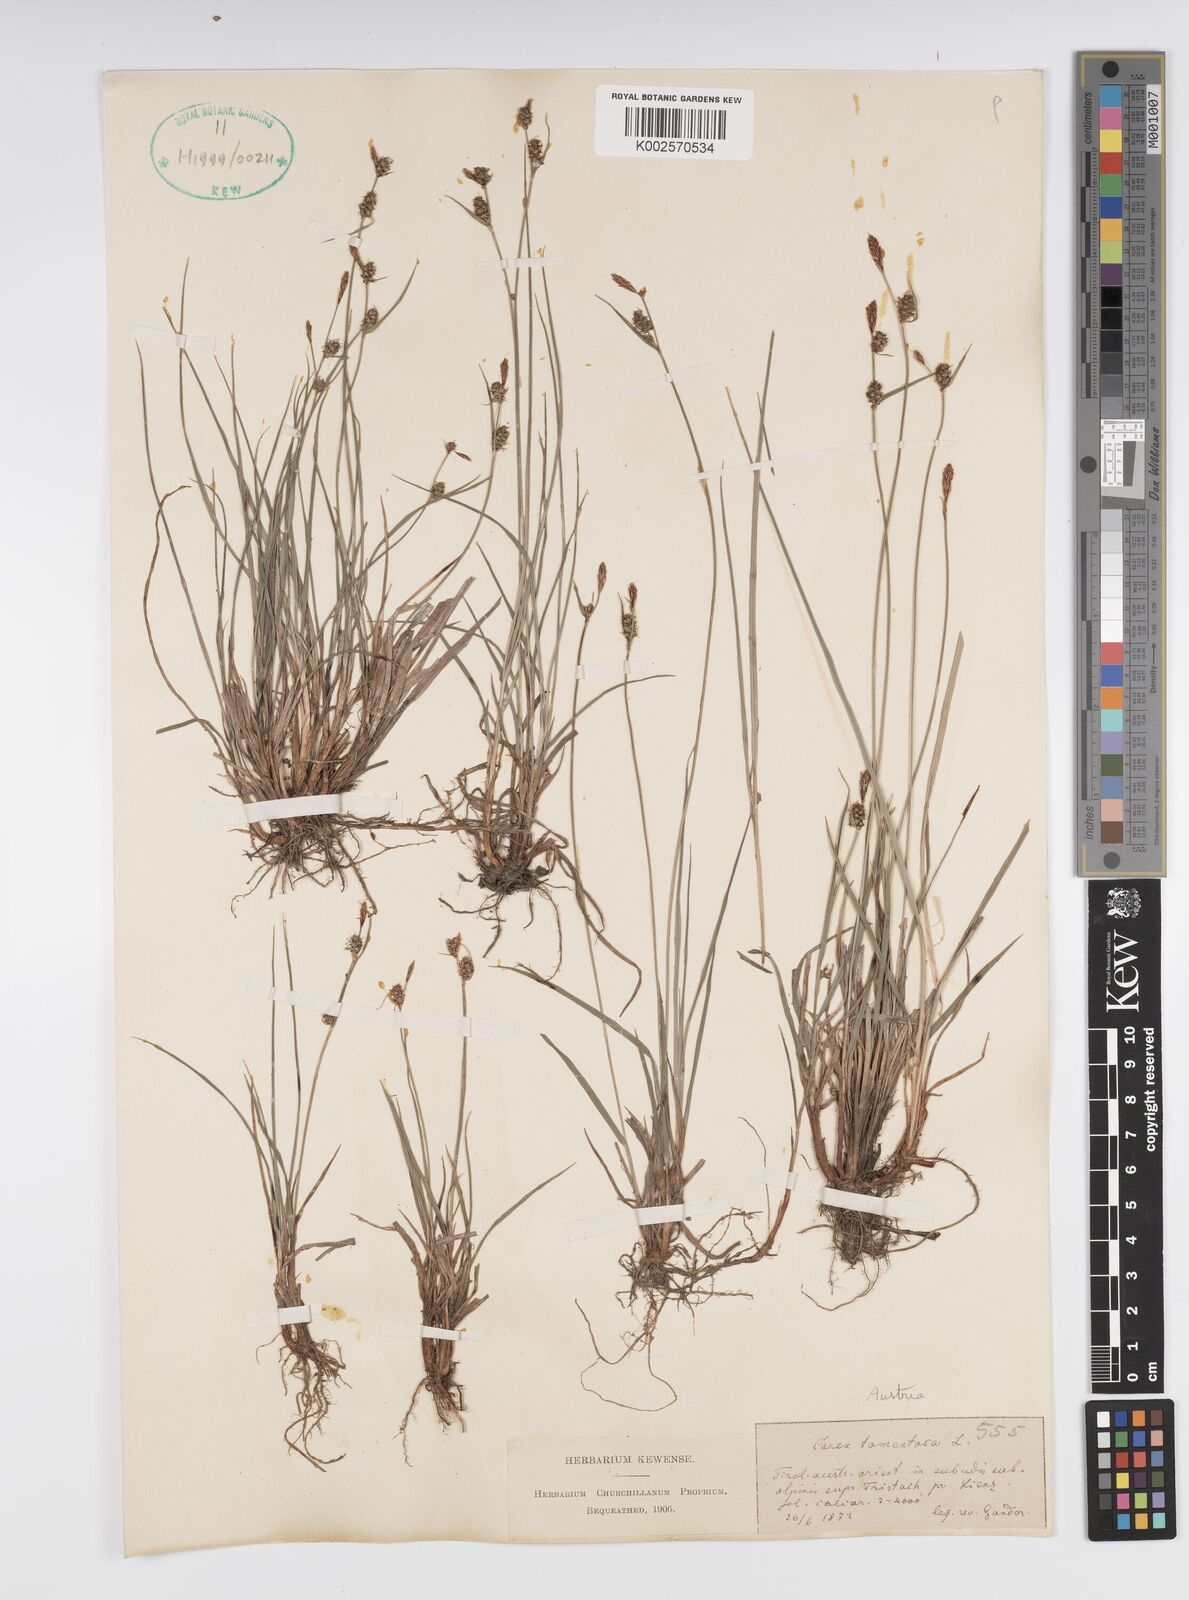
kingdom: Plantae
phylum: Tracheophyta
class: Liliopsida
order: Poales
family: Cyperaceae
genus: Carex
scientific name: Carex montana
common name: Soft-leaved sedge
